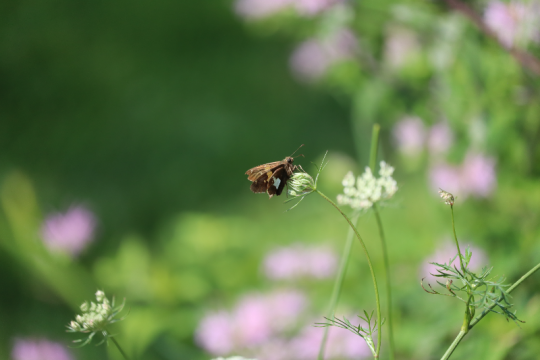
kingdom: Animalia
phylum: Arthropoda
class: Insecta
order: Lepidoptera
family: Hesperiidae
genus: Epargyreus
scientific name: Epargyreus clarus
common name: Silver-spotted Skipper
